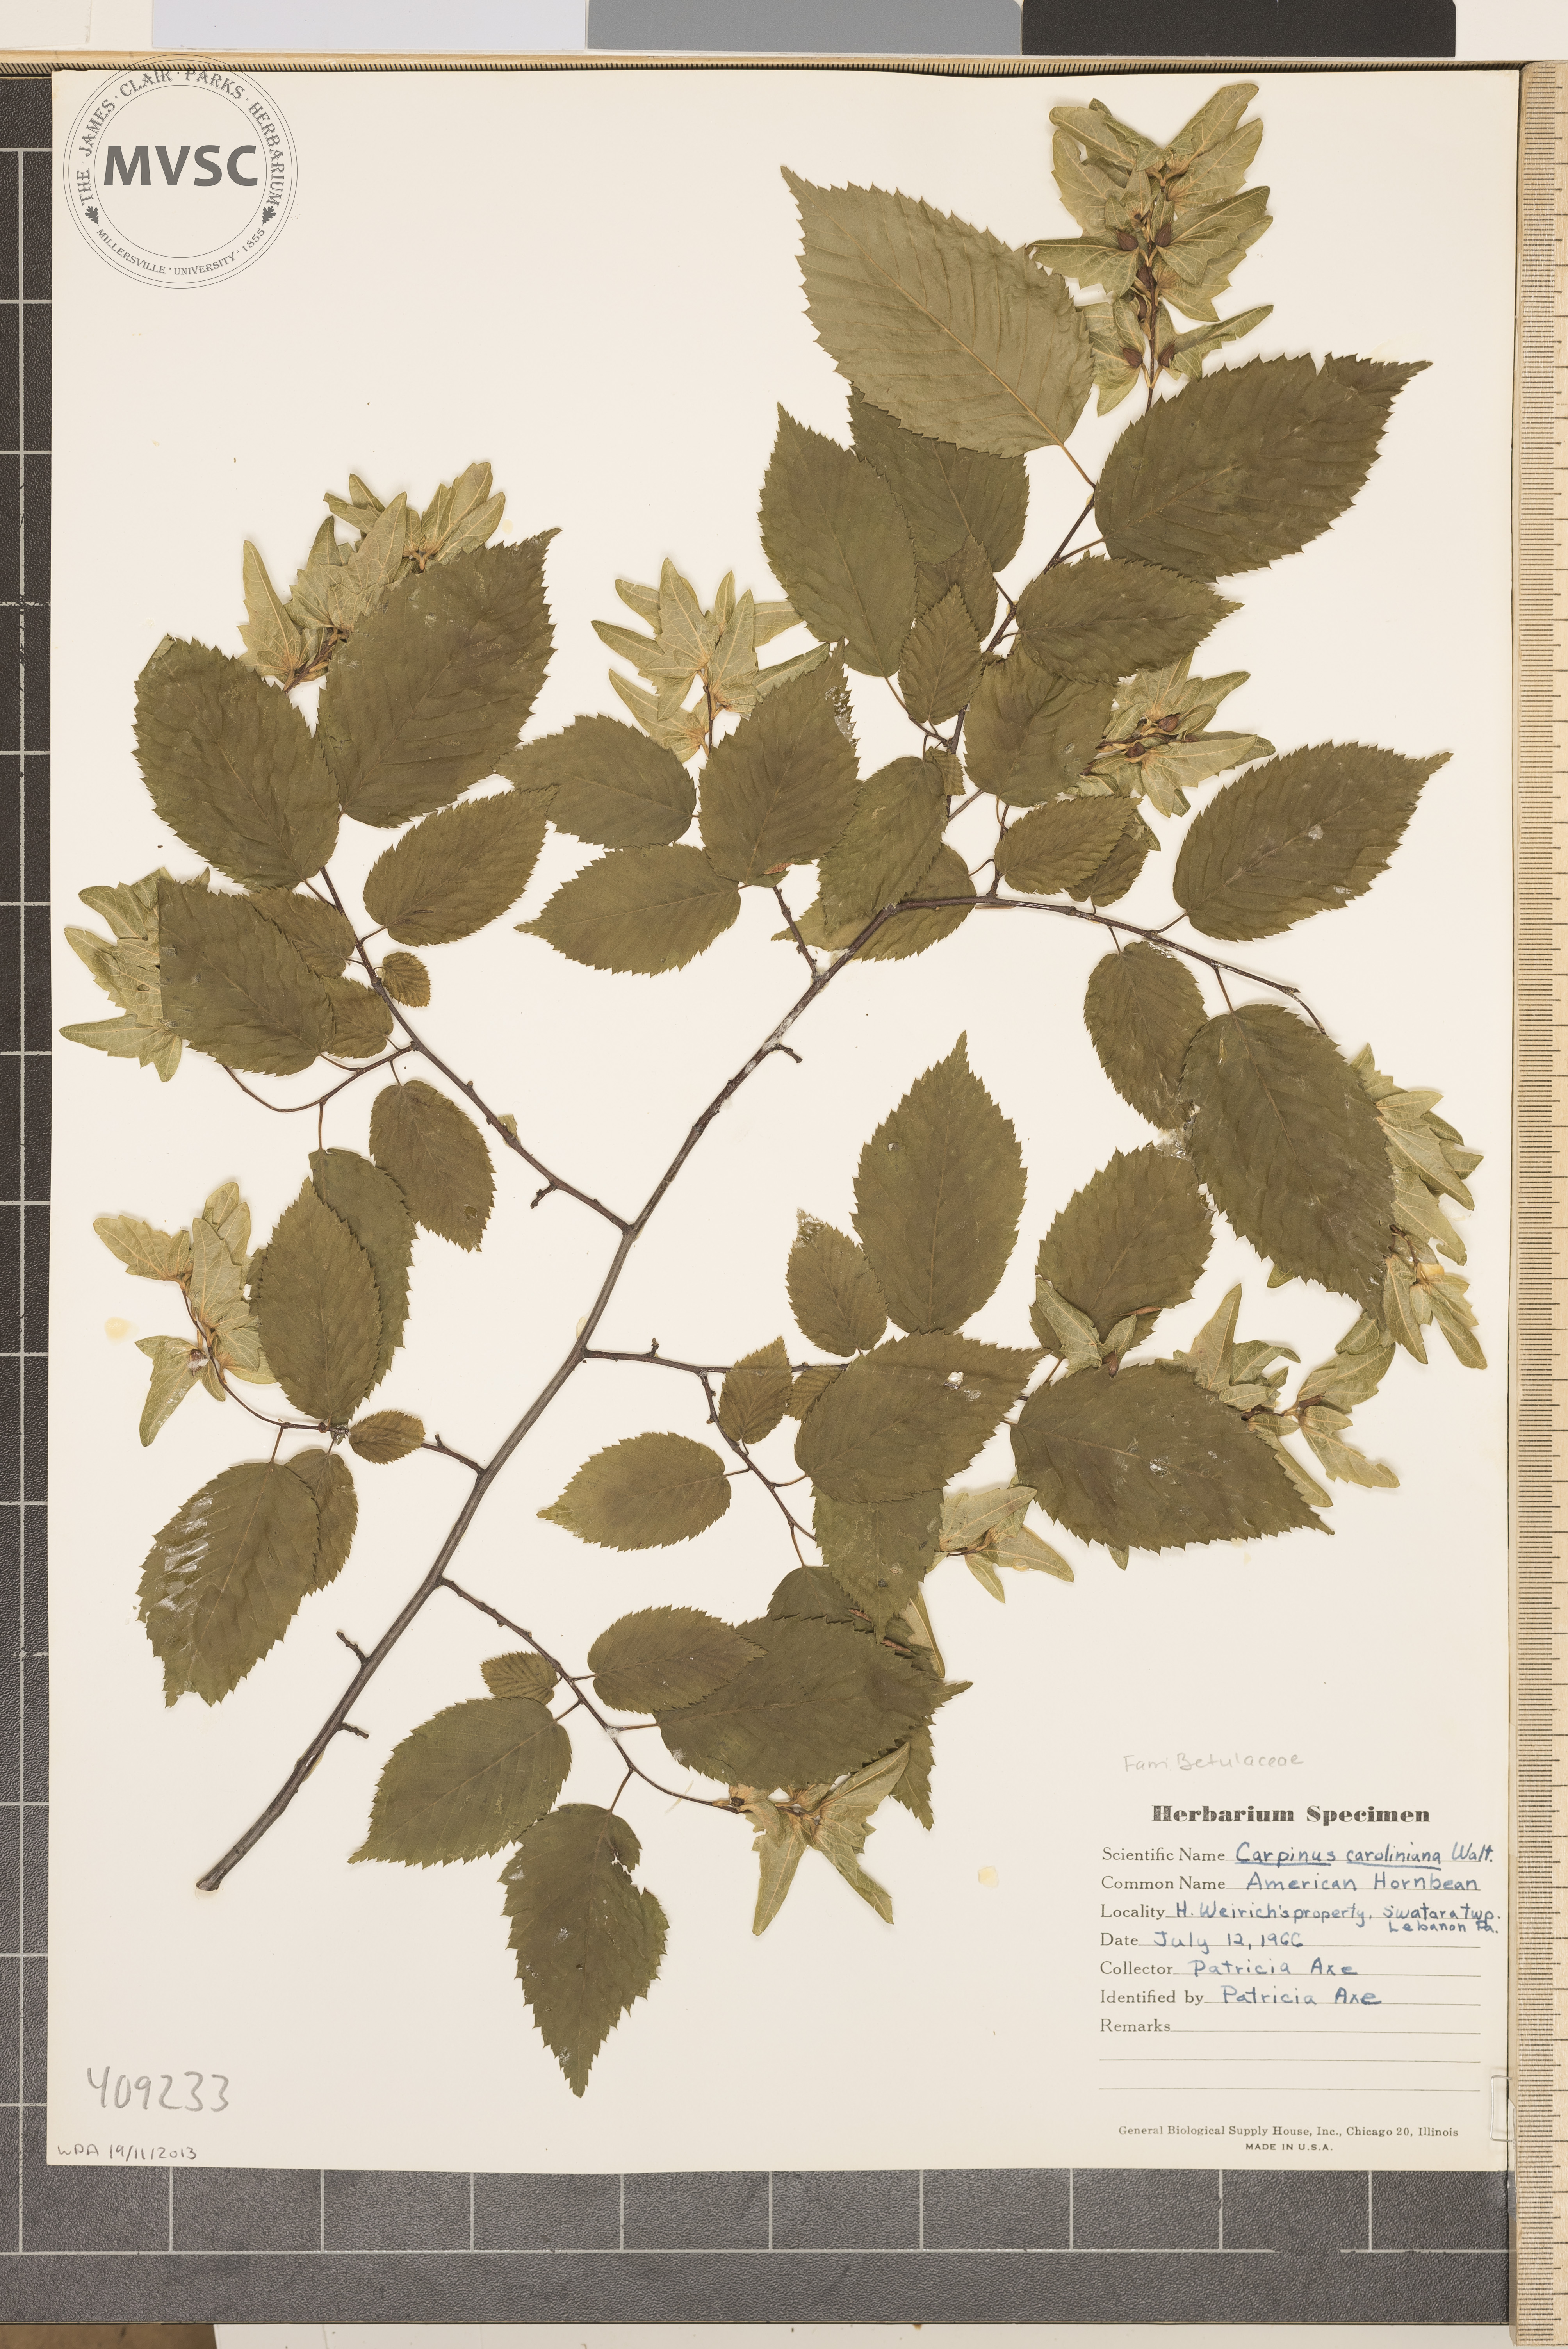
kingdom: Plantae
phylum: Tracheophyta
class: Magnoliopsida
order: Fagales
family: Betulaceae
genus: Carpinus
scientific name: Carpinus caroliniana
